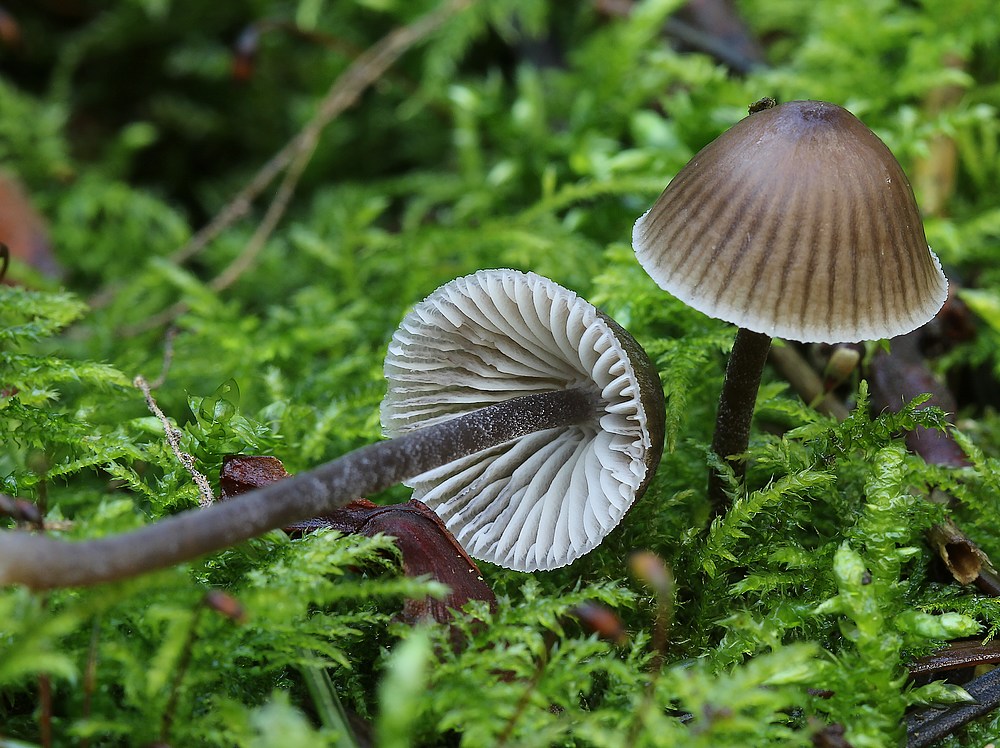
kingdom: Fungi
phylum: Basidiomycota
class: Agaricomycetes
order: Agaricales
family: Mycenaceae
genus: Mycena
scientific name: Mycena leptocephala
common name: klor-huesvamp
